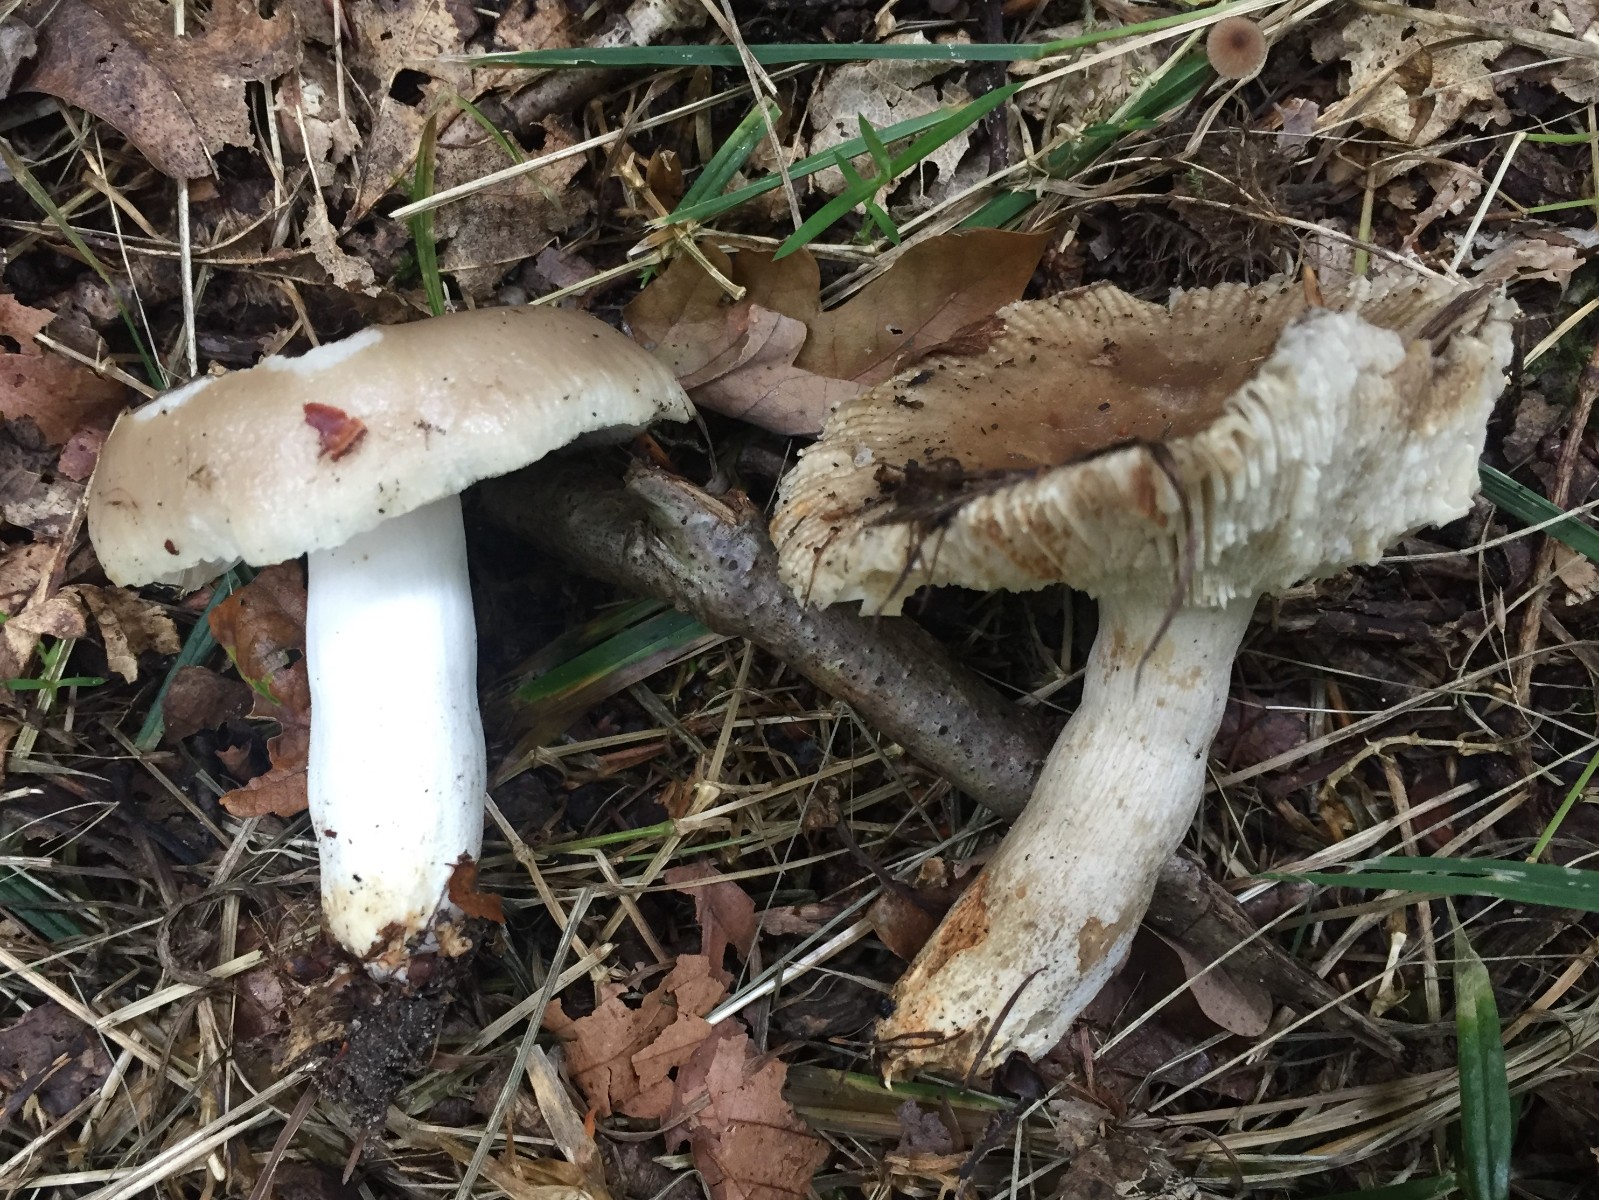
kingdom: Fungi
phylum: Basidiomycota
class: Agaricomycetes
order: Russulales
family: Russulaceae
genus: Russula
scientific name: Russula amoenolens
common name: skarp kam-skørhat
